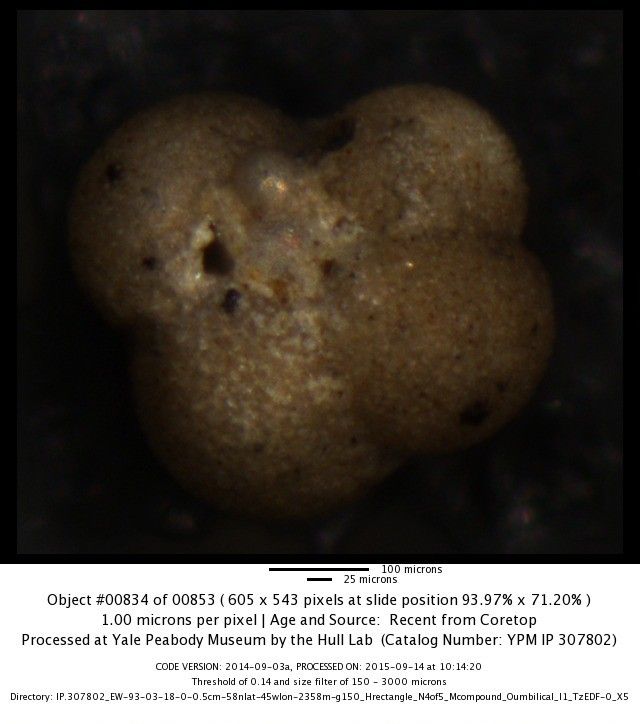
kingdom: Chromista
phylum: Foraminifera
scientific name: Foraminifera
